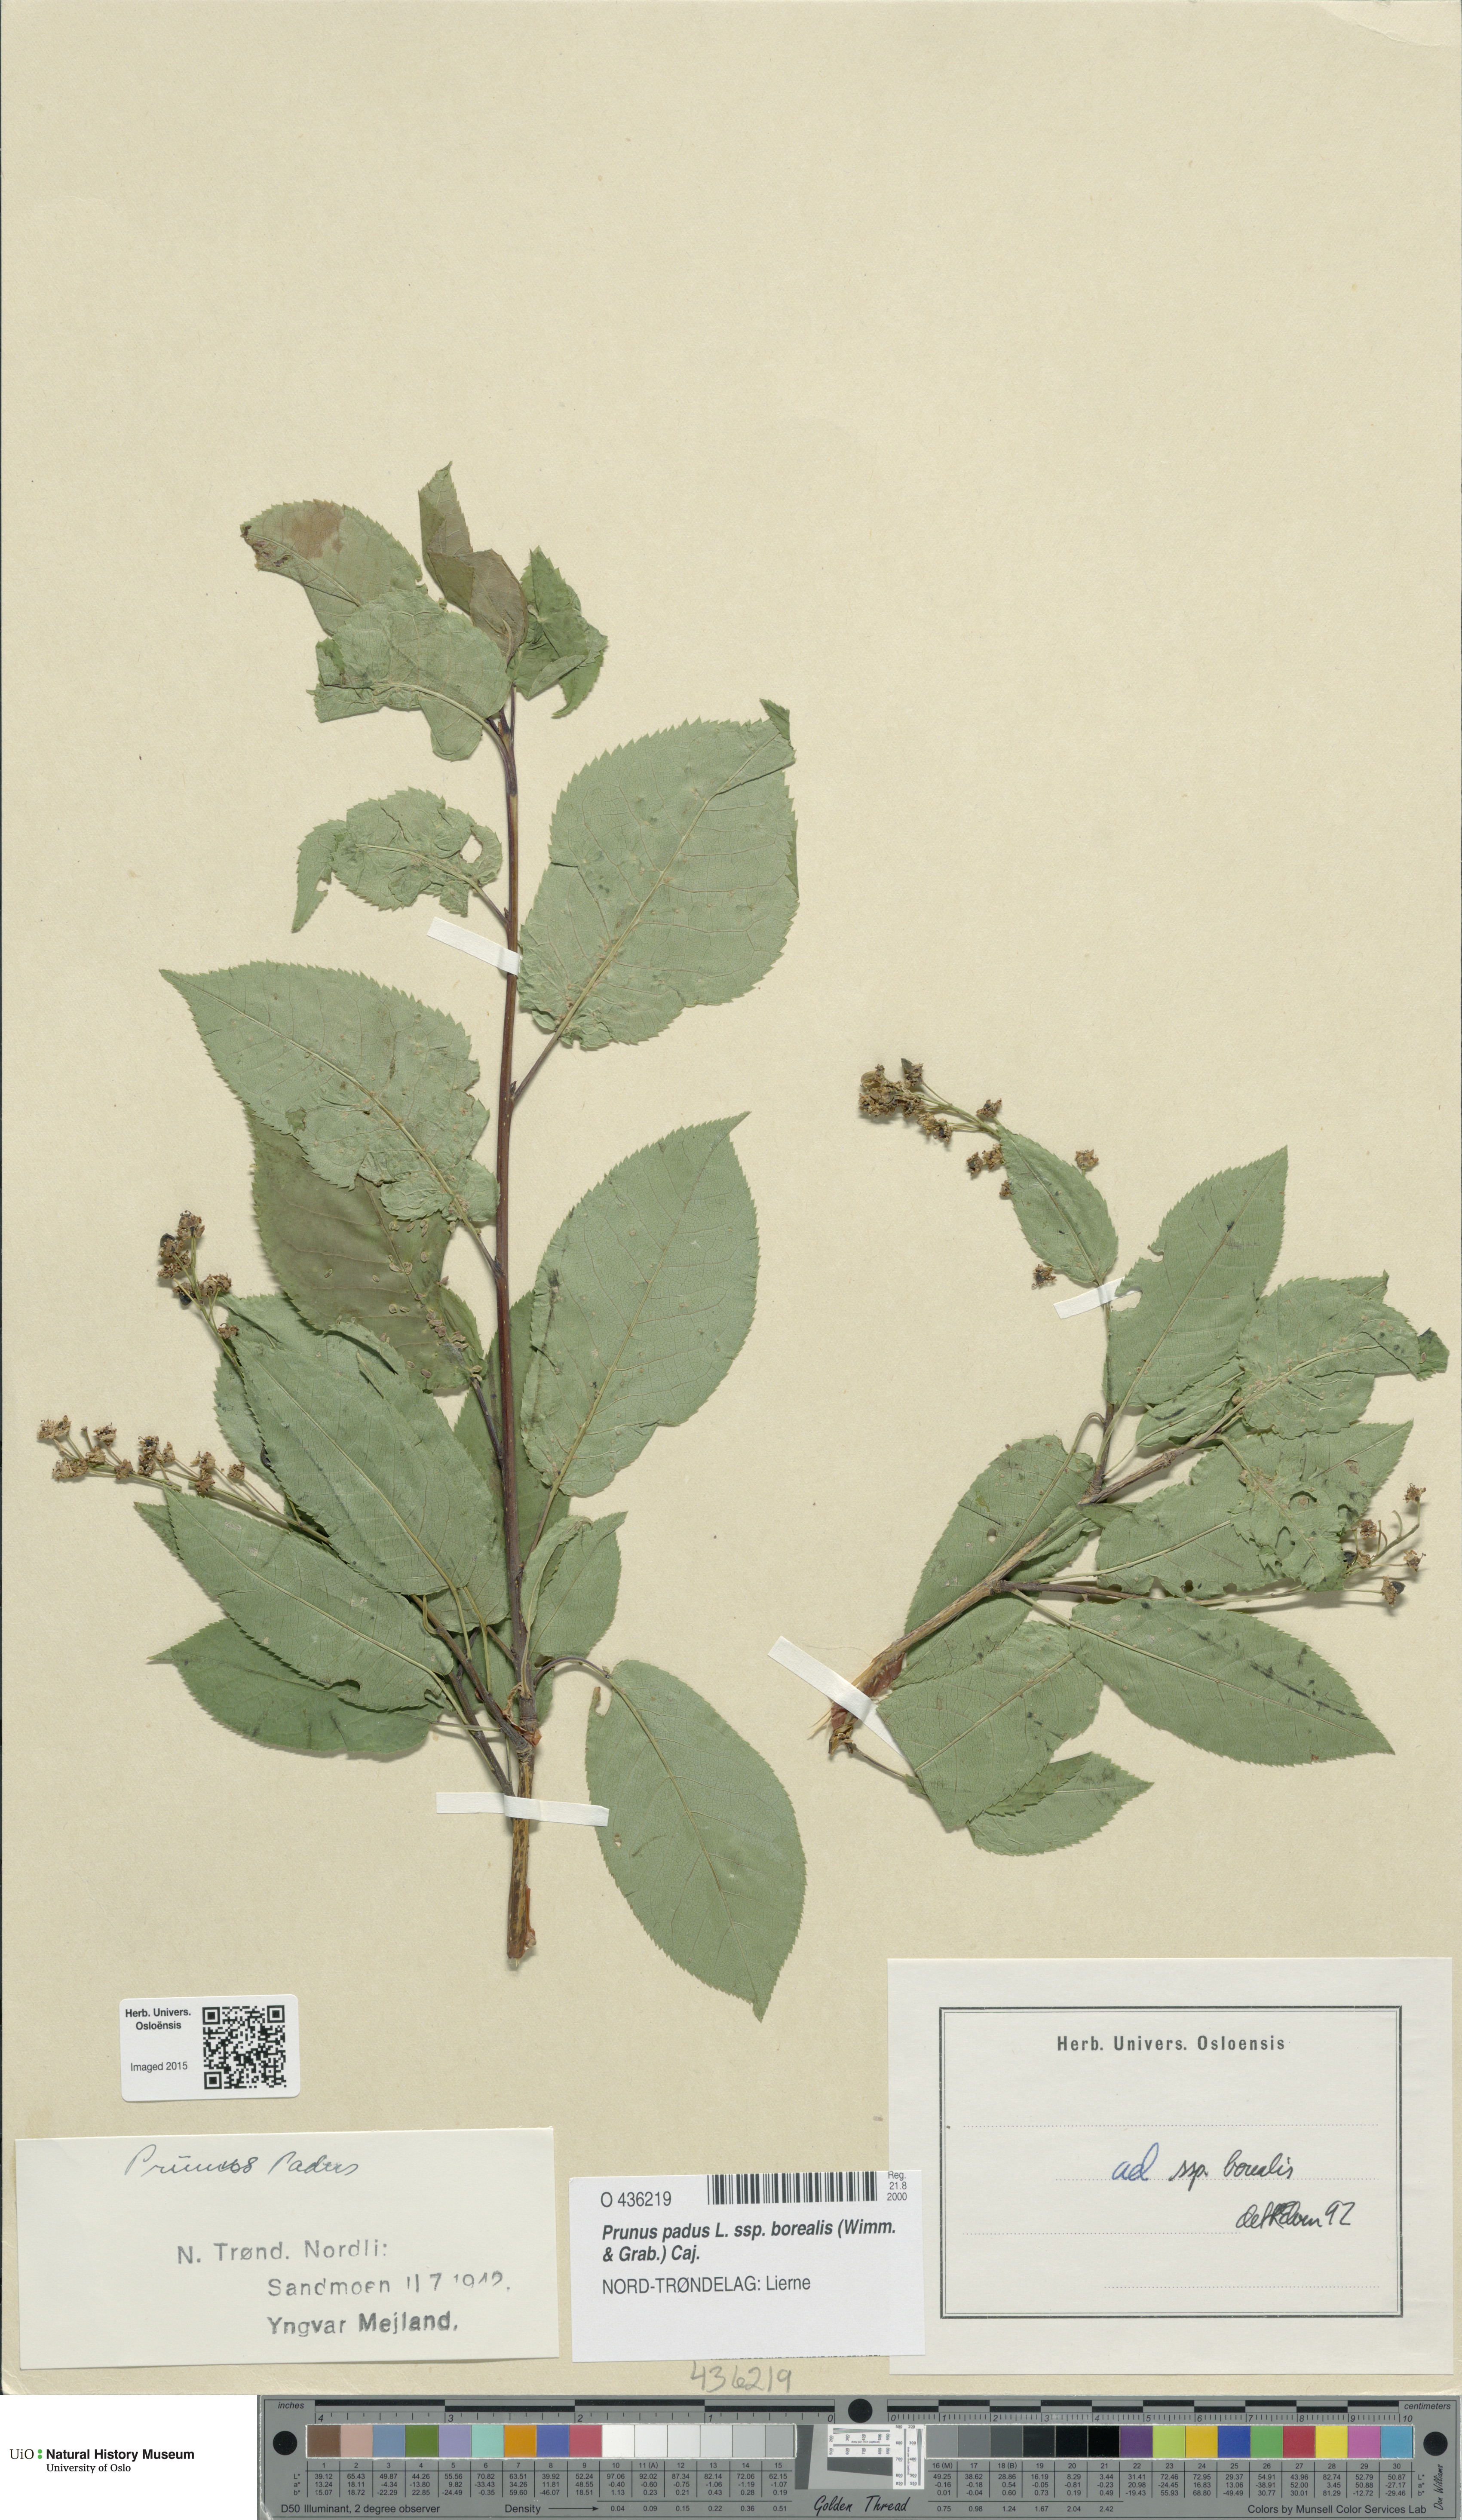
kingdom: Plantae
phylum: Tracheophyta
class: Magnoliopsida
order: Rosales
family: Rosaceae
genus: Prunus
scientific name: Prunus padus
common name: Bird cherry
